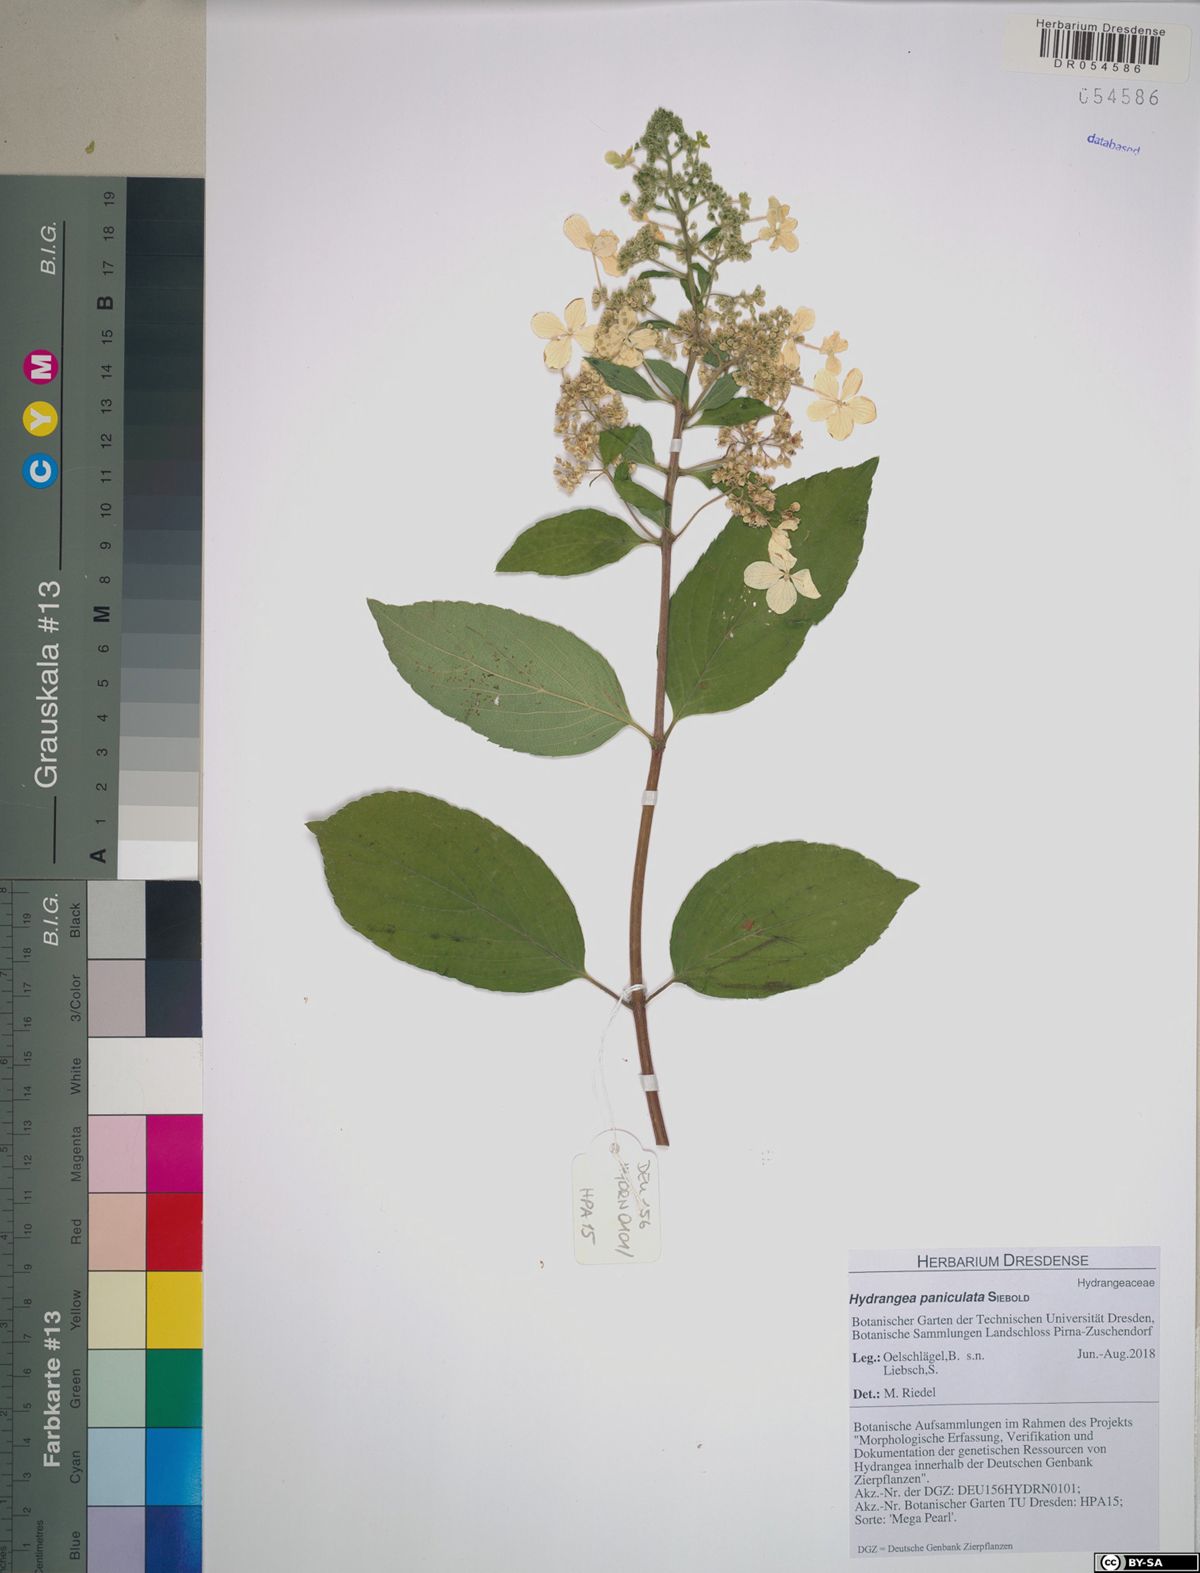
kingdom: Plantae
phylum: Tracheophyta
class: Magnoliopsida
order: Cornales
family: Hydrangeaceae
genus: Hydrangea
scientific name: Hydrangea paniculata
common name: Panicled hydrangea
